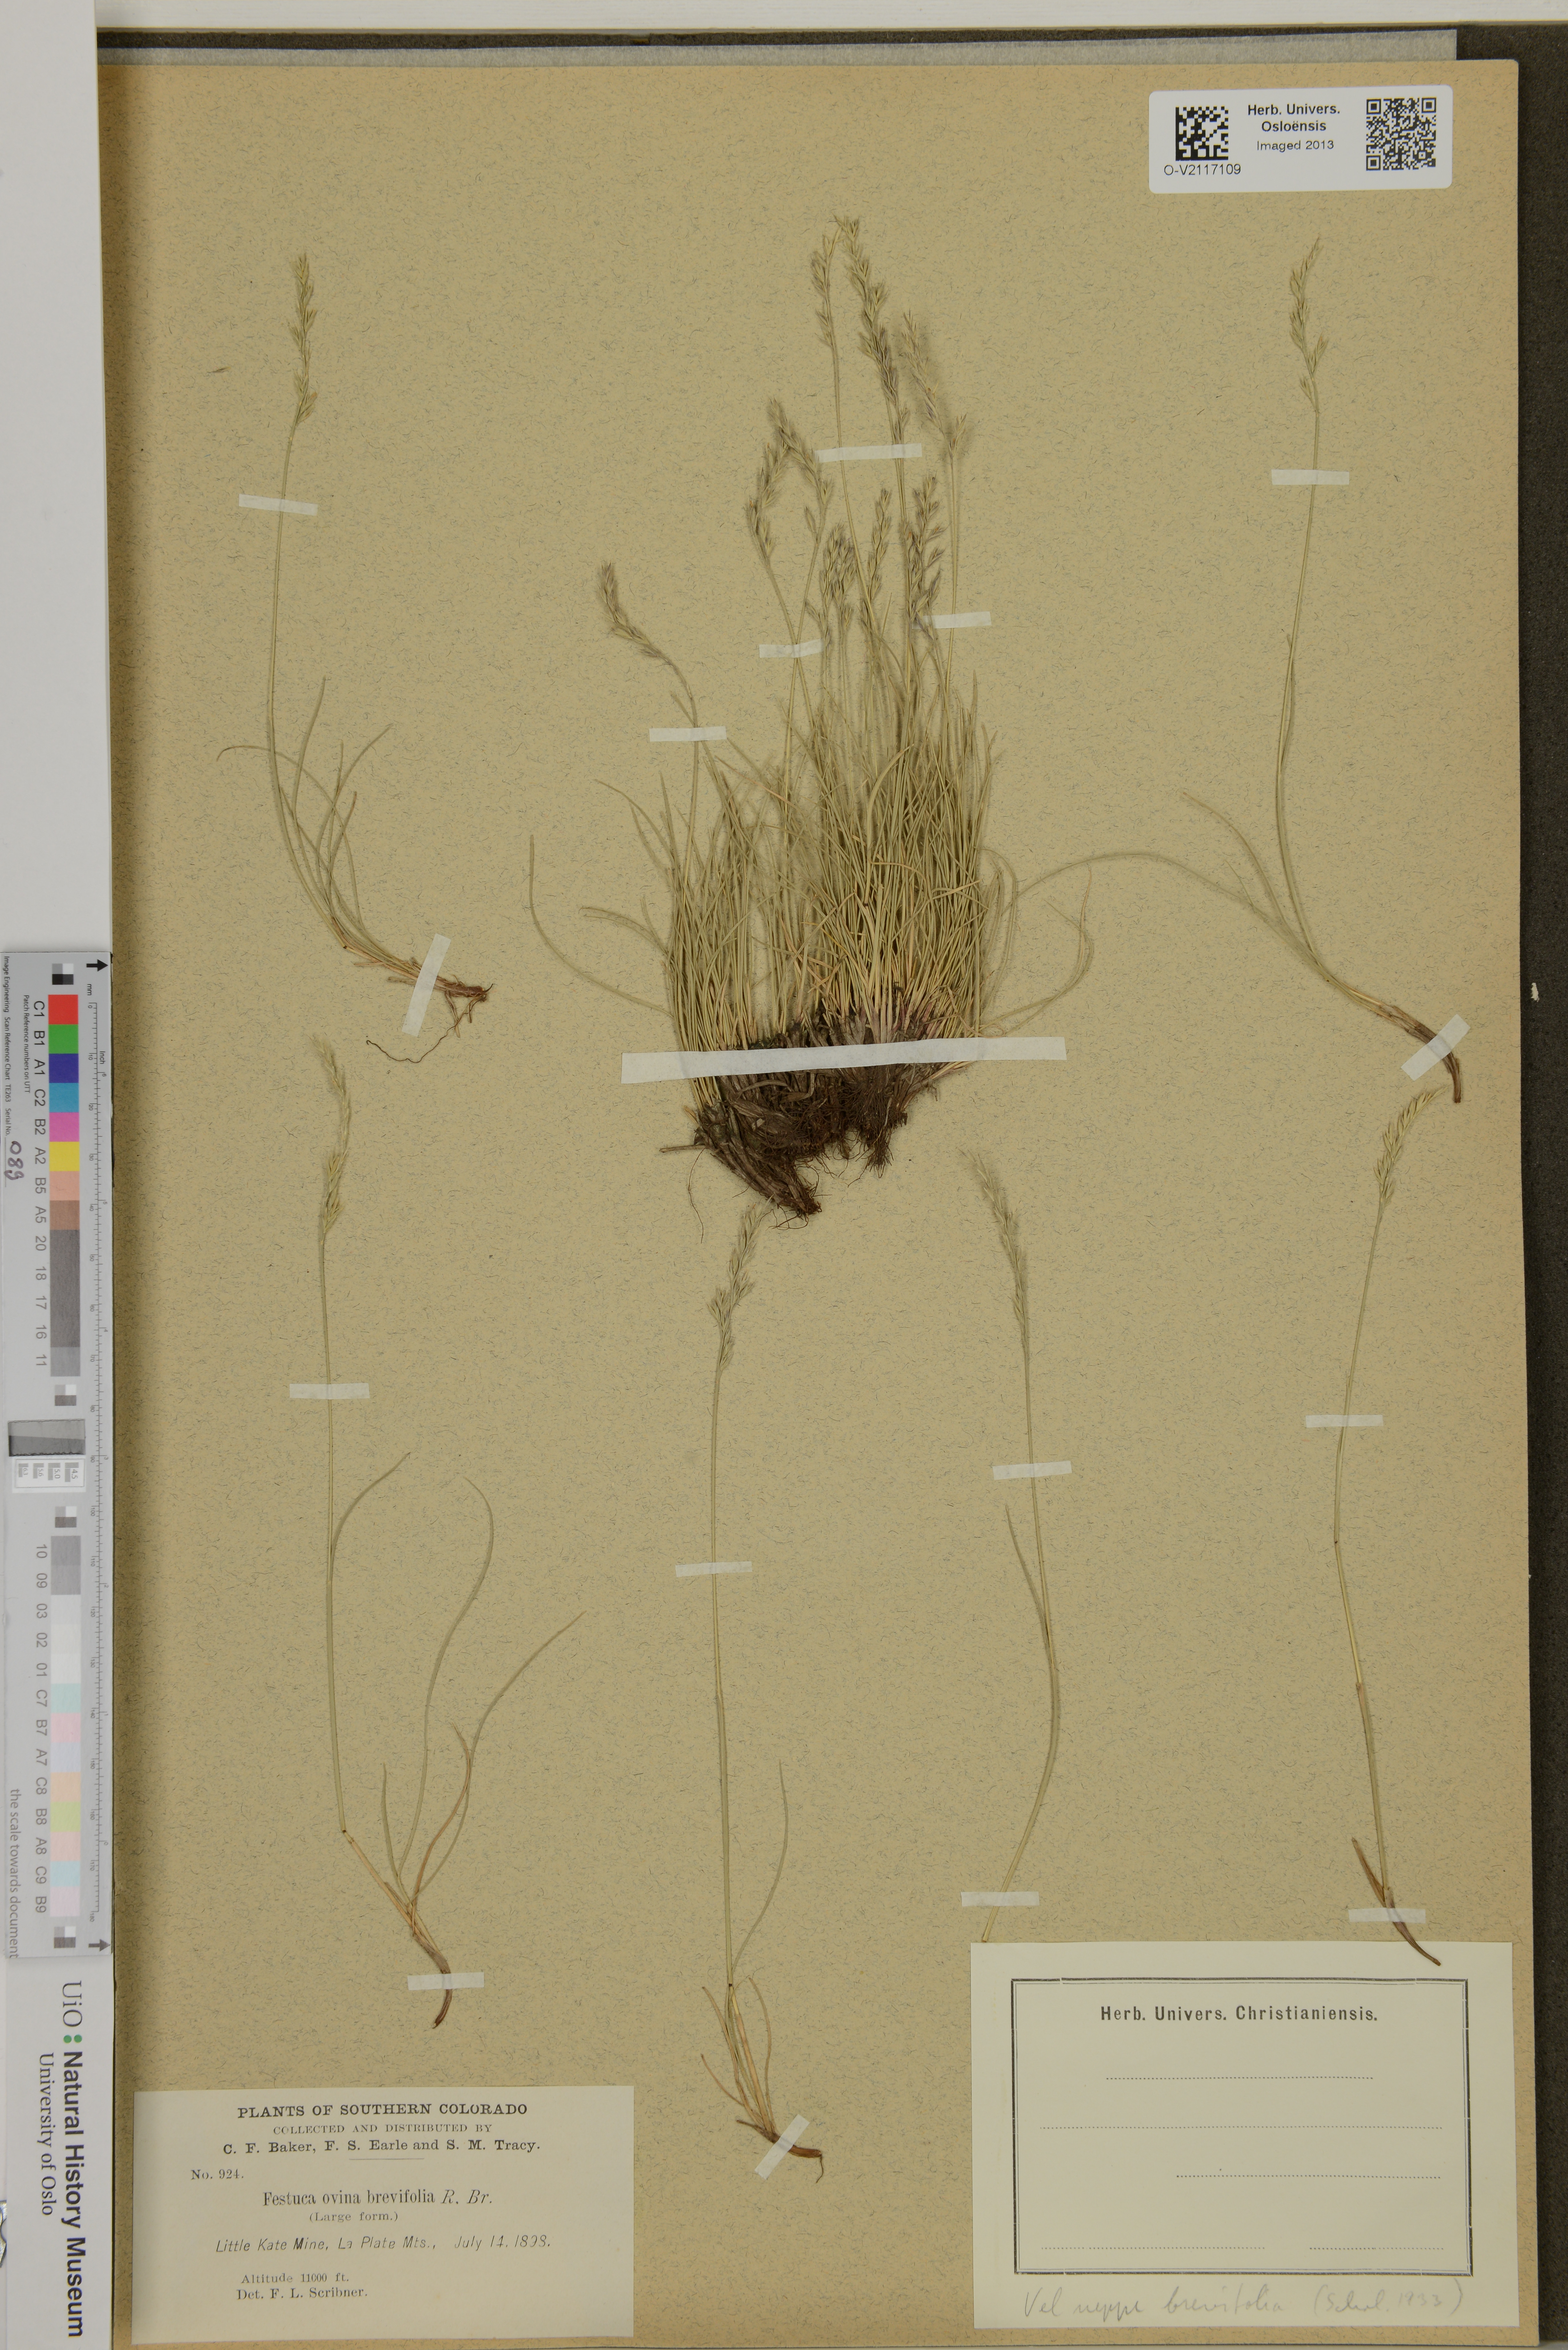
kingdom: Plantae
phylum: Tracheophyta
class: Liliopsida
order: Poales
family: Poaceae
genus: Festuca
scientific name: Festuca brachyphylla
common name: Alpine fescue
